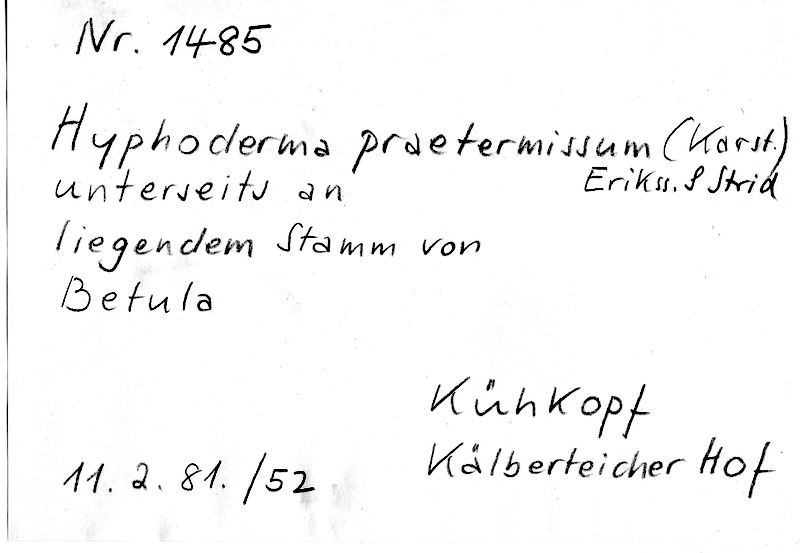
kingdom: Fungi
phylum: Basidiomycota
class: Agaricomycetes
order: Hymenochaetales
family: Rickenellaceae
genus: Peniophorella
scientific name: Peniophorella praetermissa
